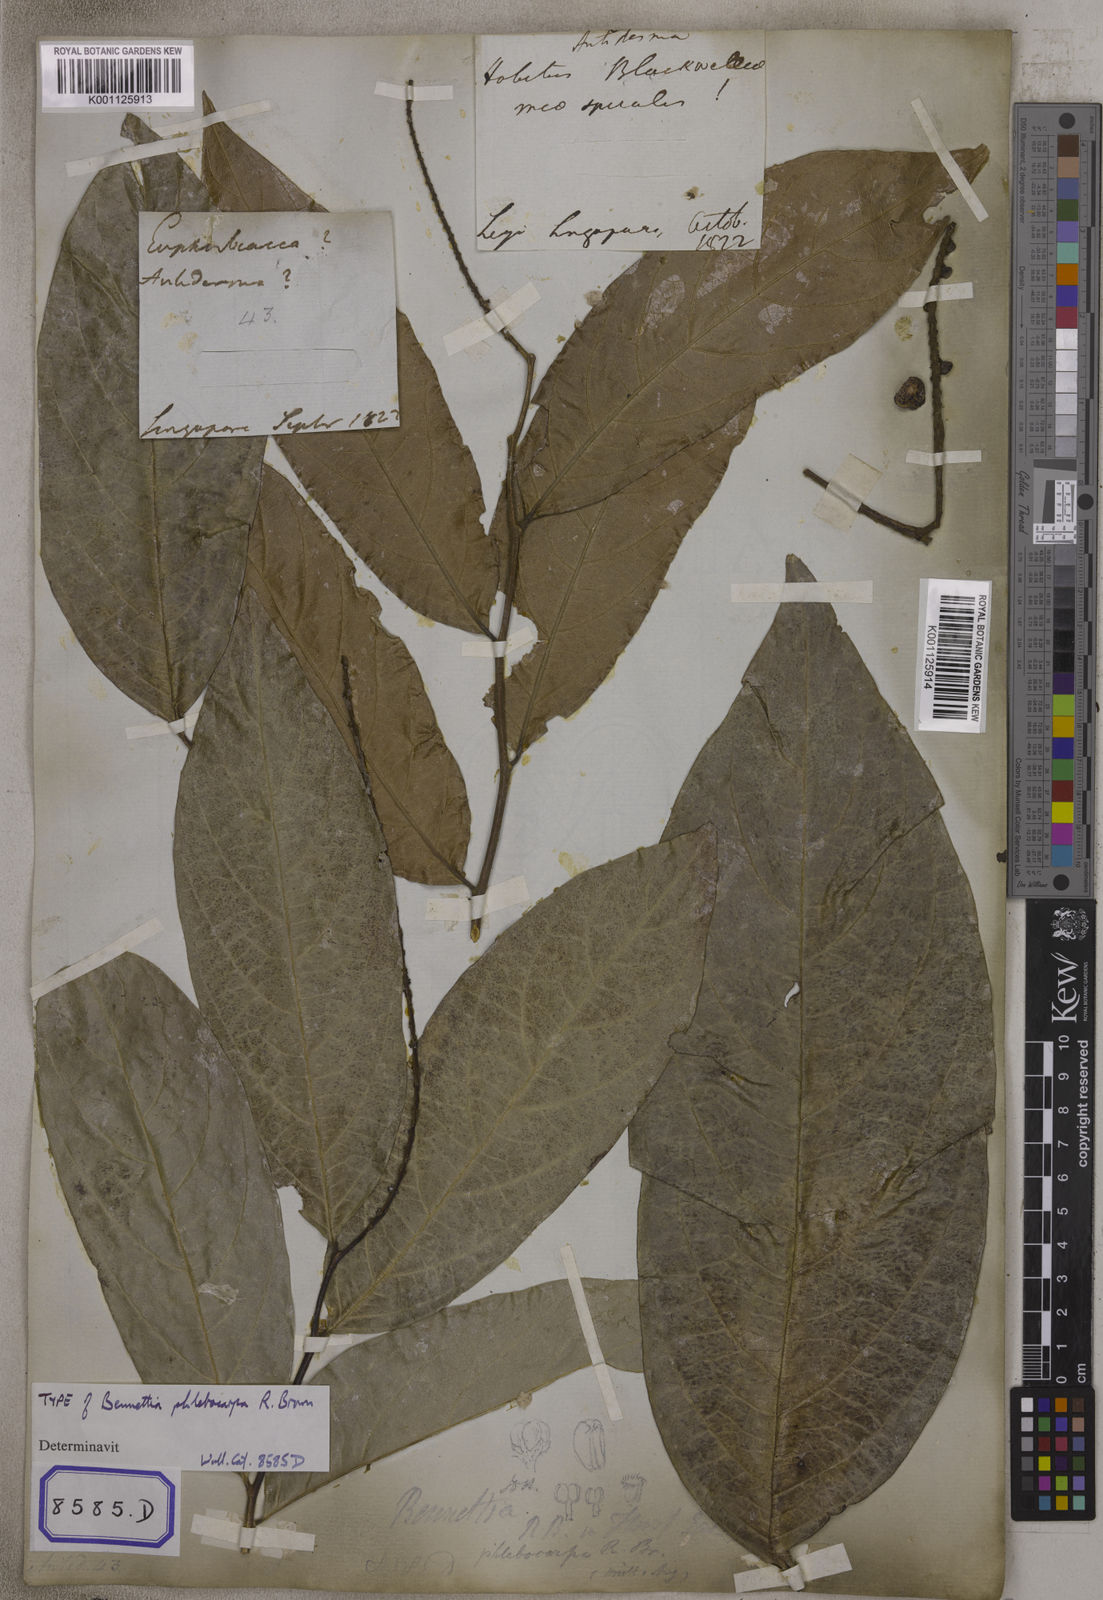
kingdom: Plantae
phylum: Tracheophyta
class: Magnoliopsida
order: Malpighiales
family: Pandaceae
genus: Galearia
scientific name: Galearia
